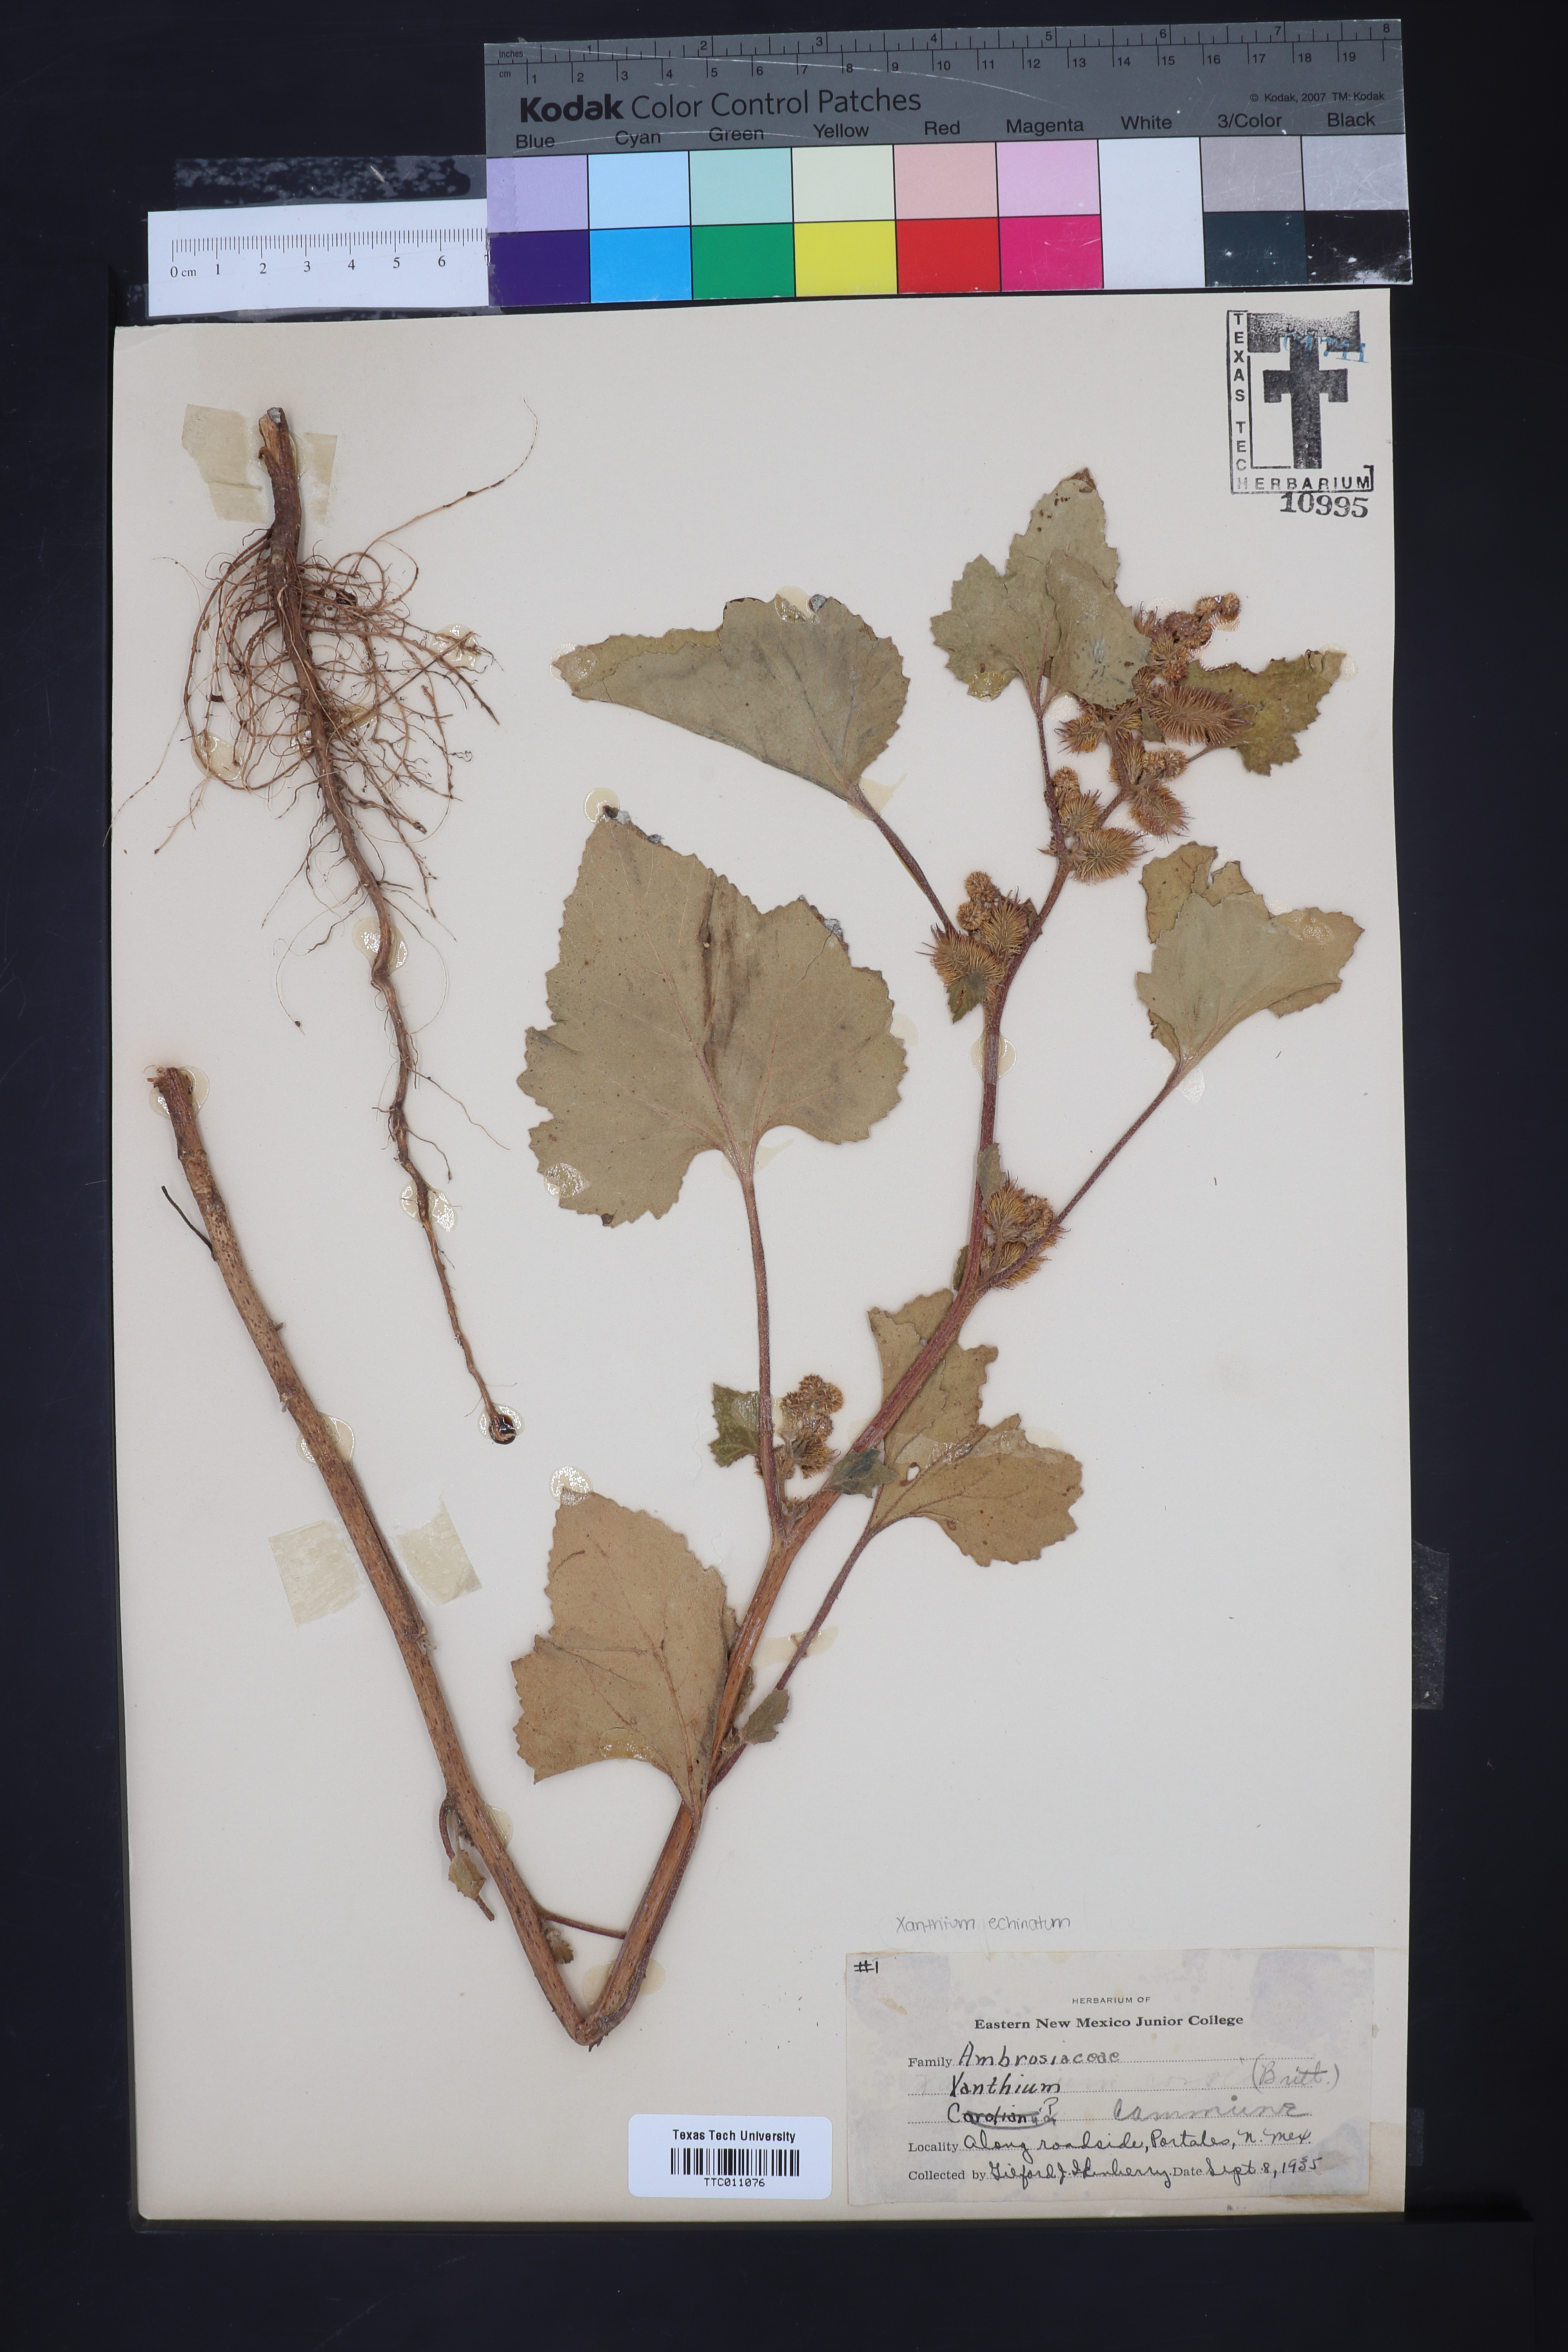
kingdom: Plantae
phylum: Tracheophyta
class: Magnoliopsida
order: Asterales
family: Asteraceae
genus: Xanthium
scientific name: Xanthium orientale
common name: Californian burr
